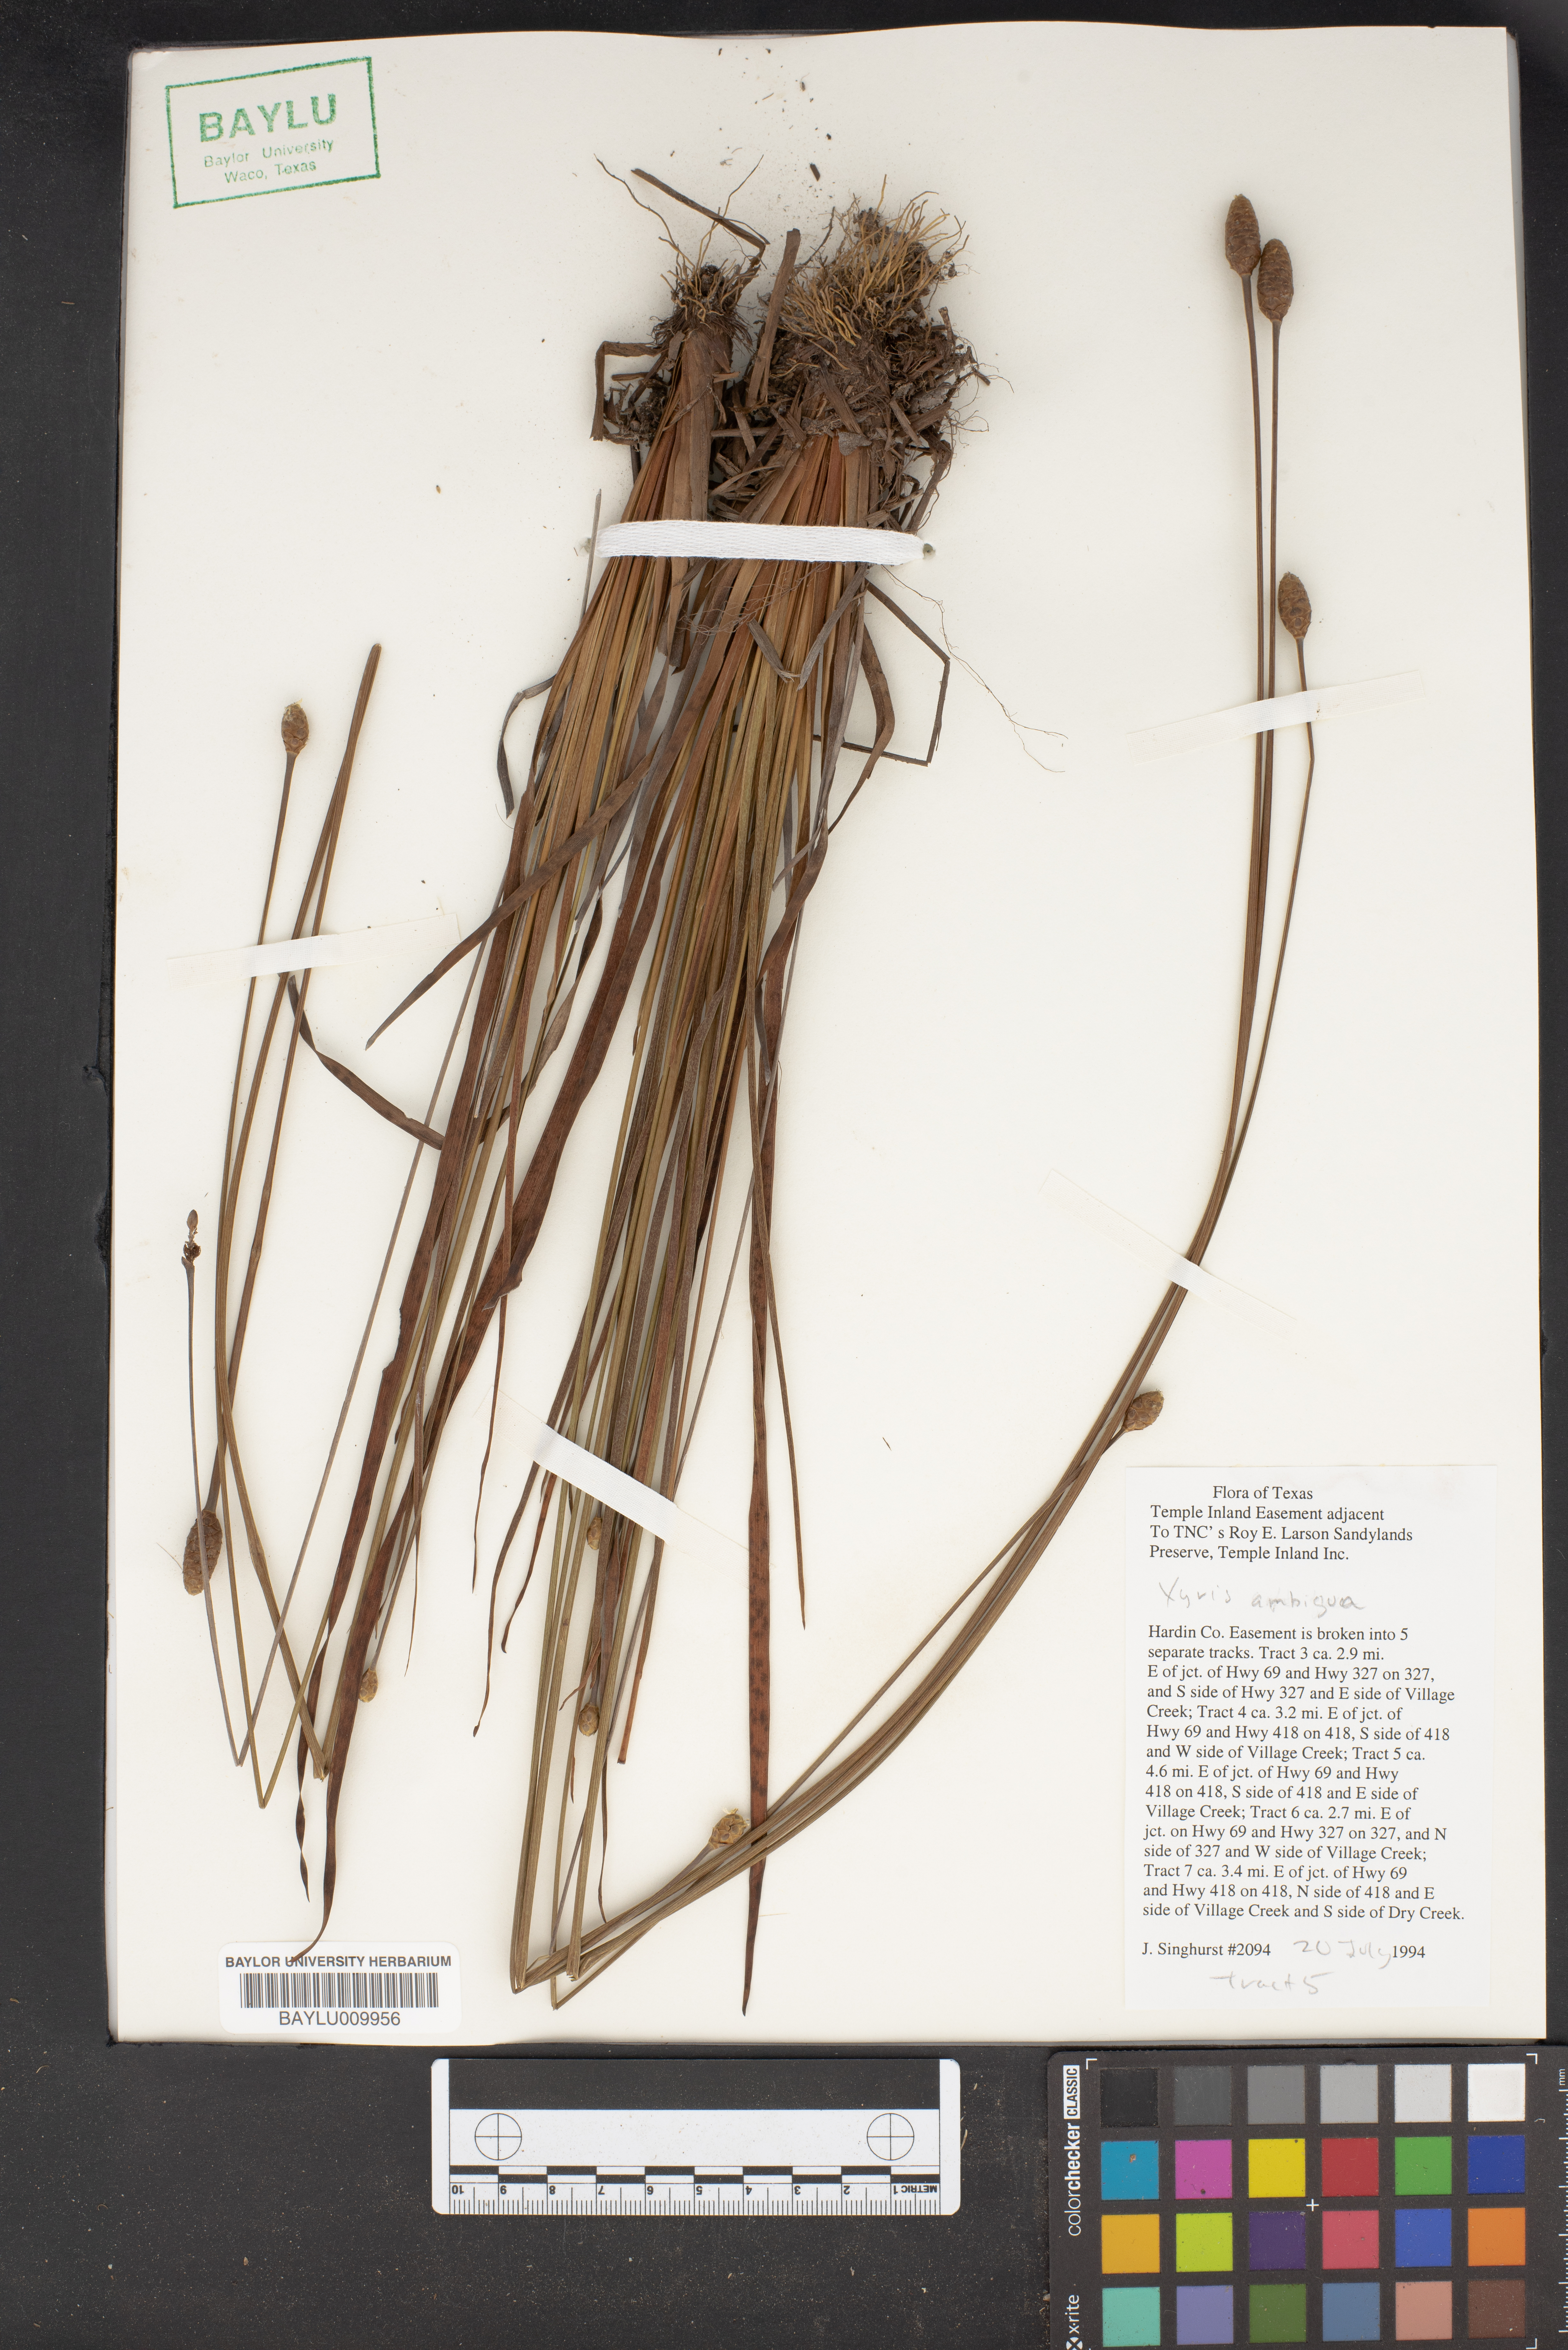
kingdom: Plantae
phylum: Tracheophyta
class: Liliopsida
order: Poales
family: Xyridaceae
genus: Xyris
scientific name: Xyris ambigua
